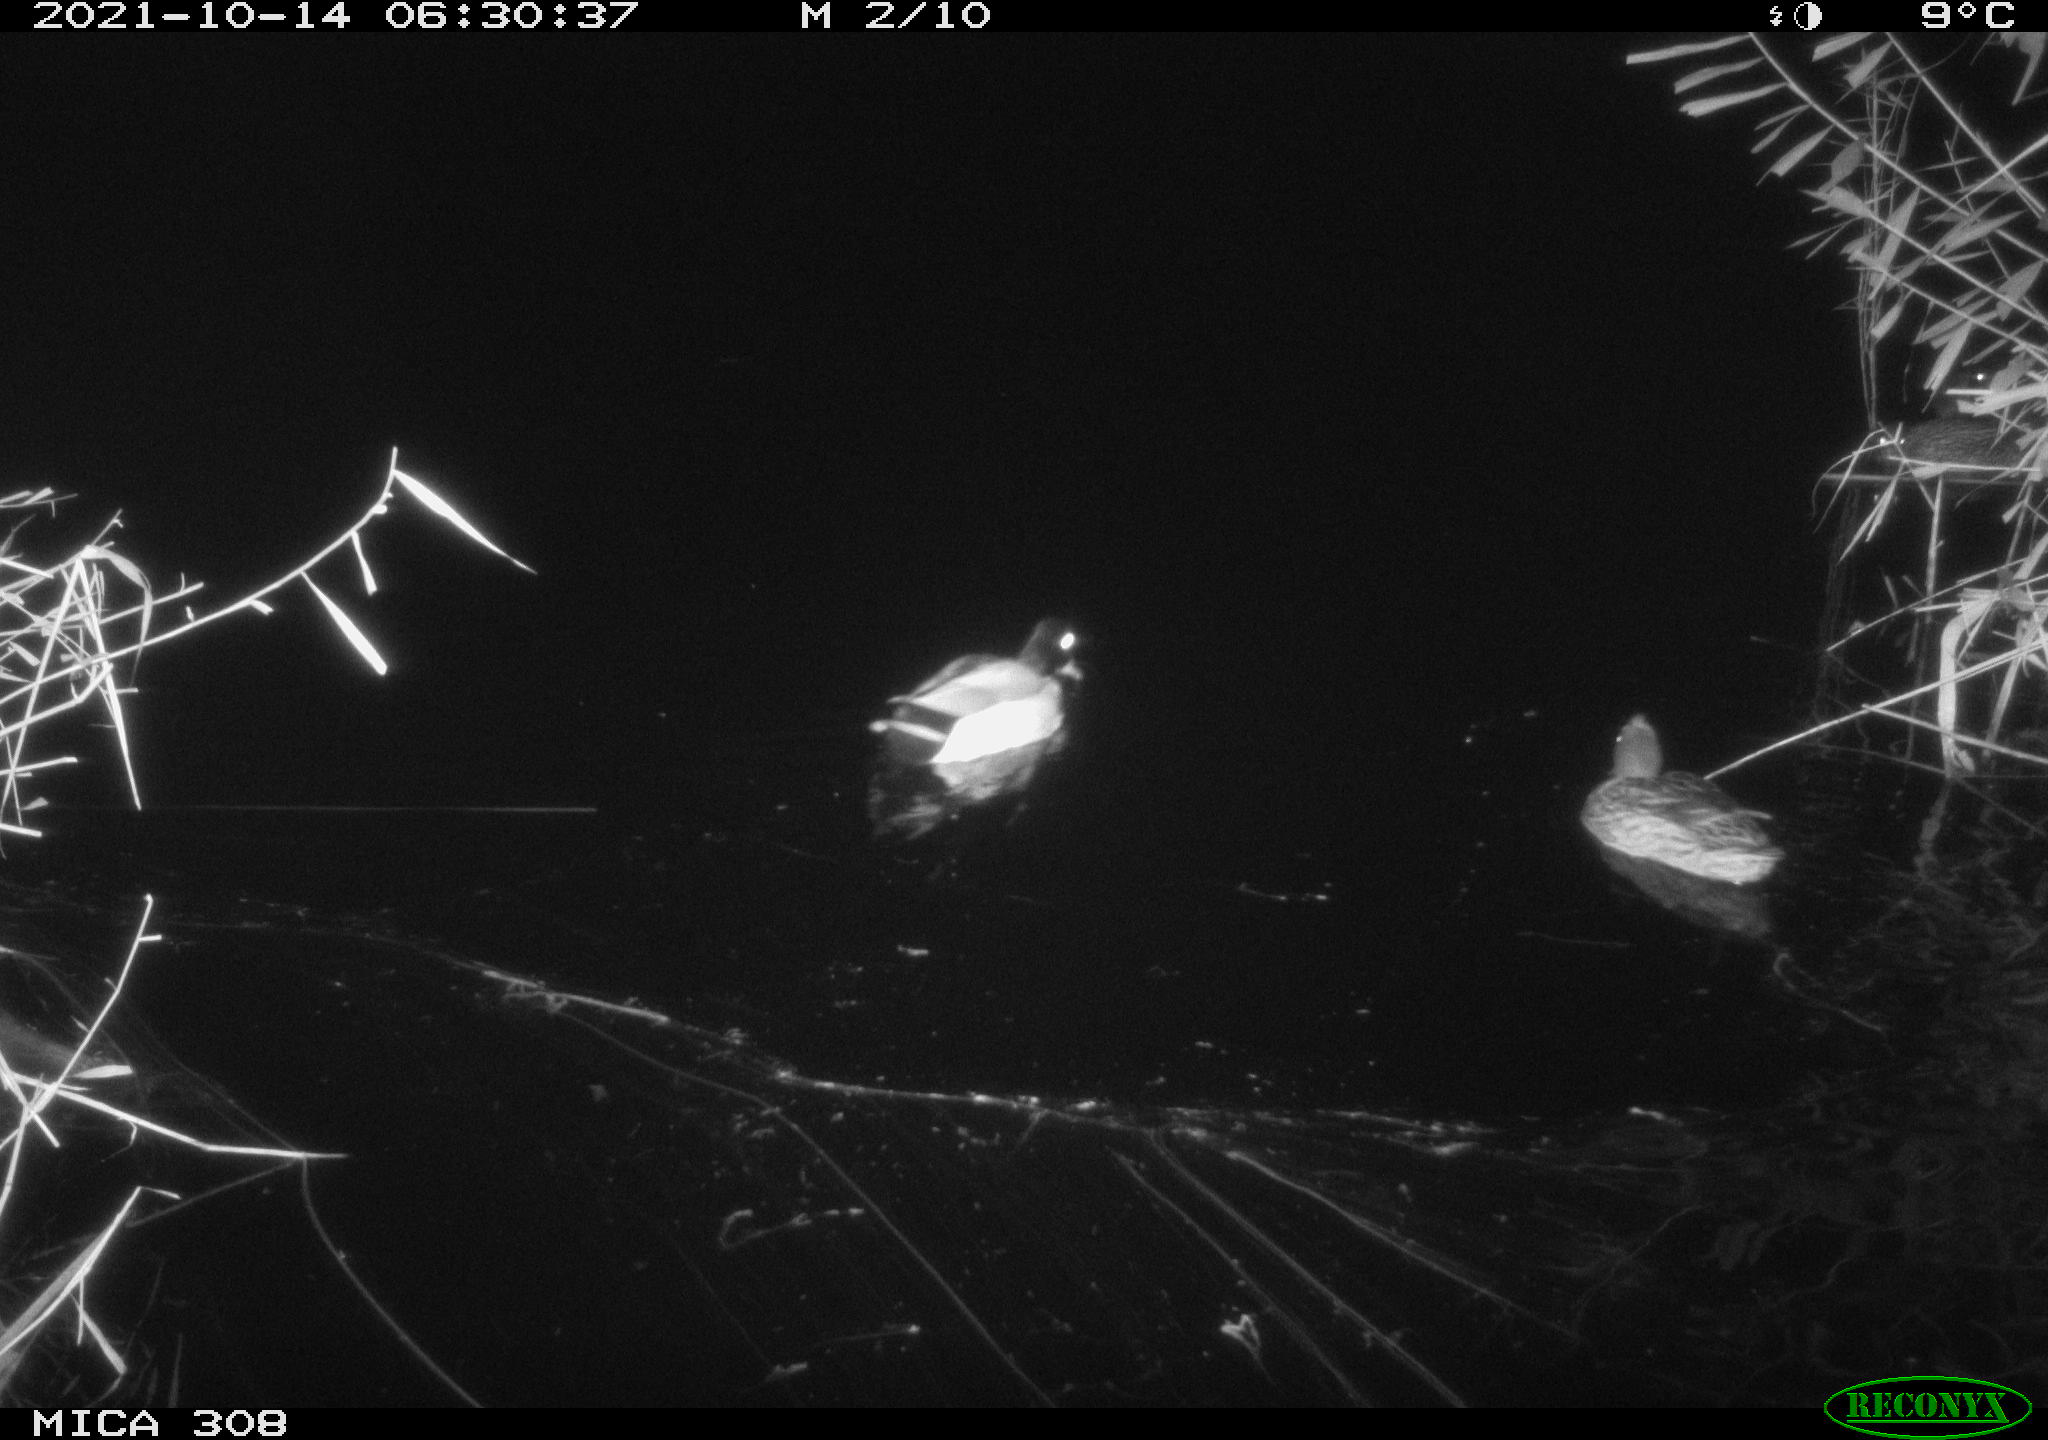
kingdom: Animalia
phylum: Chordata
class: Aves
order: Anseriformes
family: Anatidae
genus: Anas
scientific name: Anas platyrhynchos
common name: Mallard
